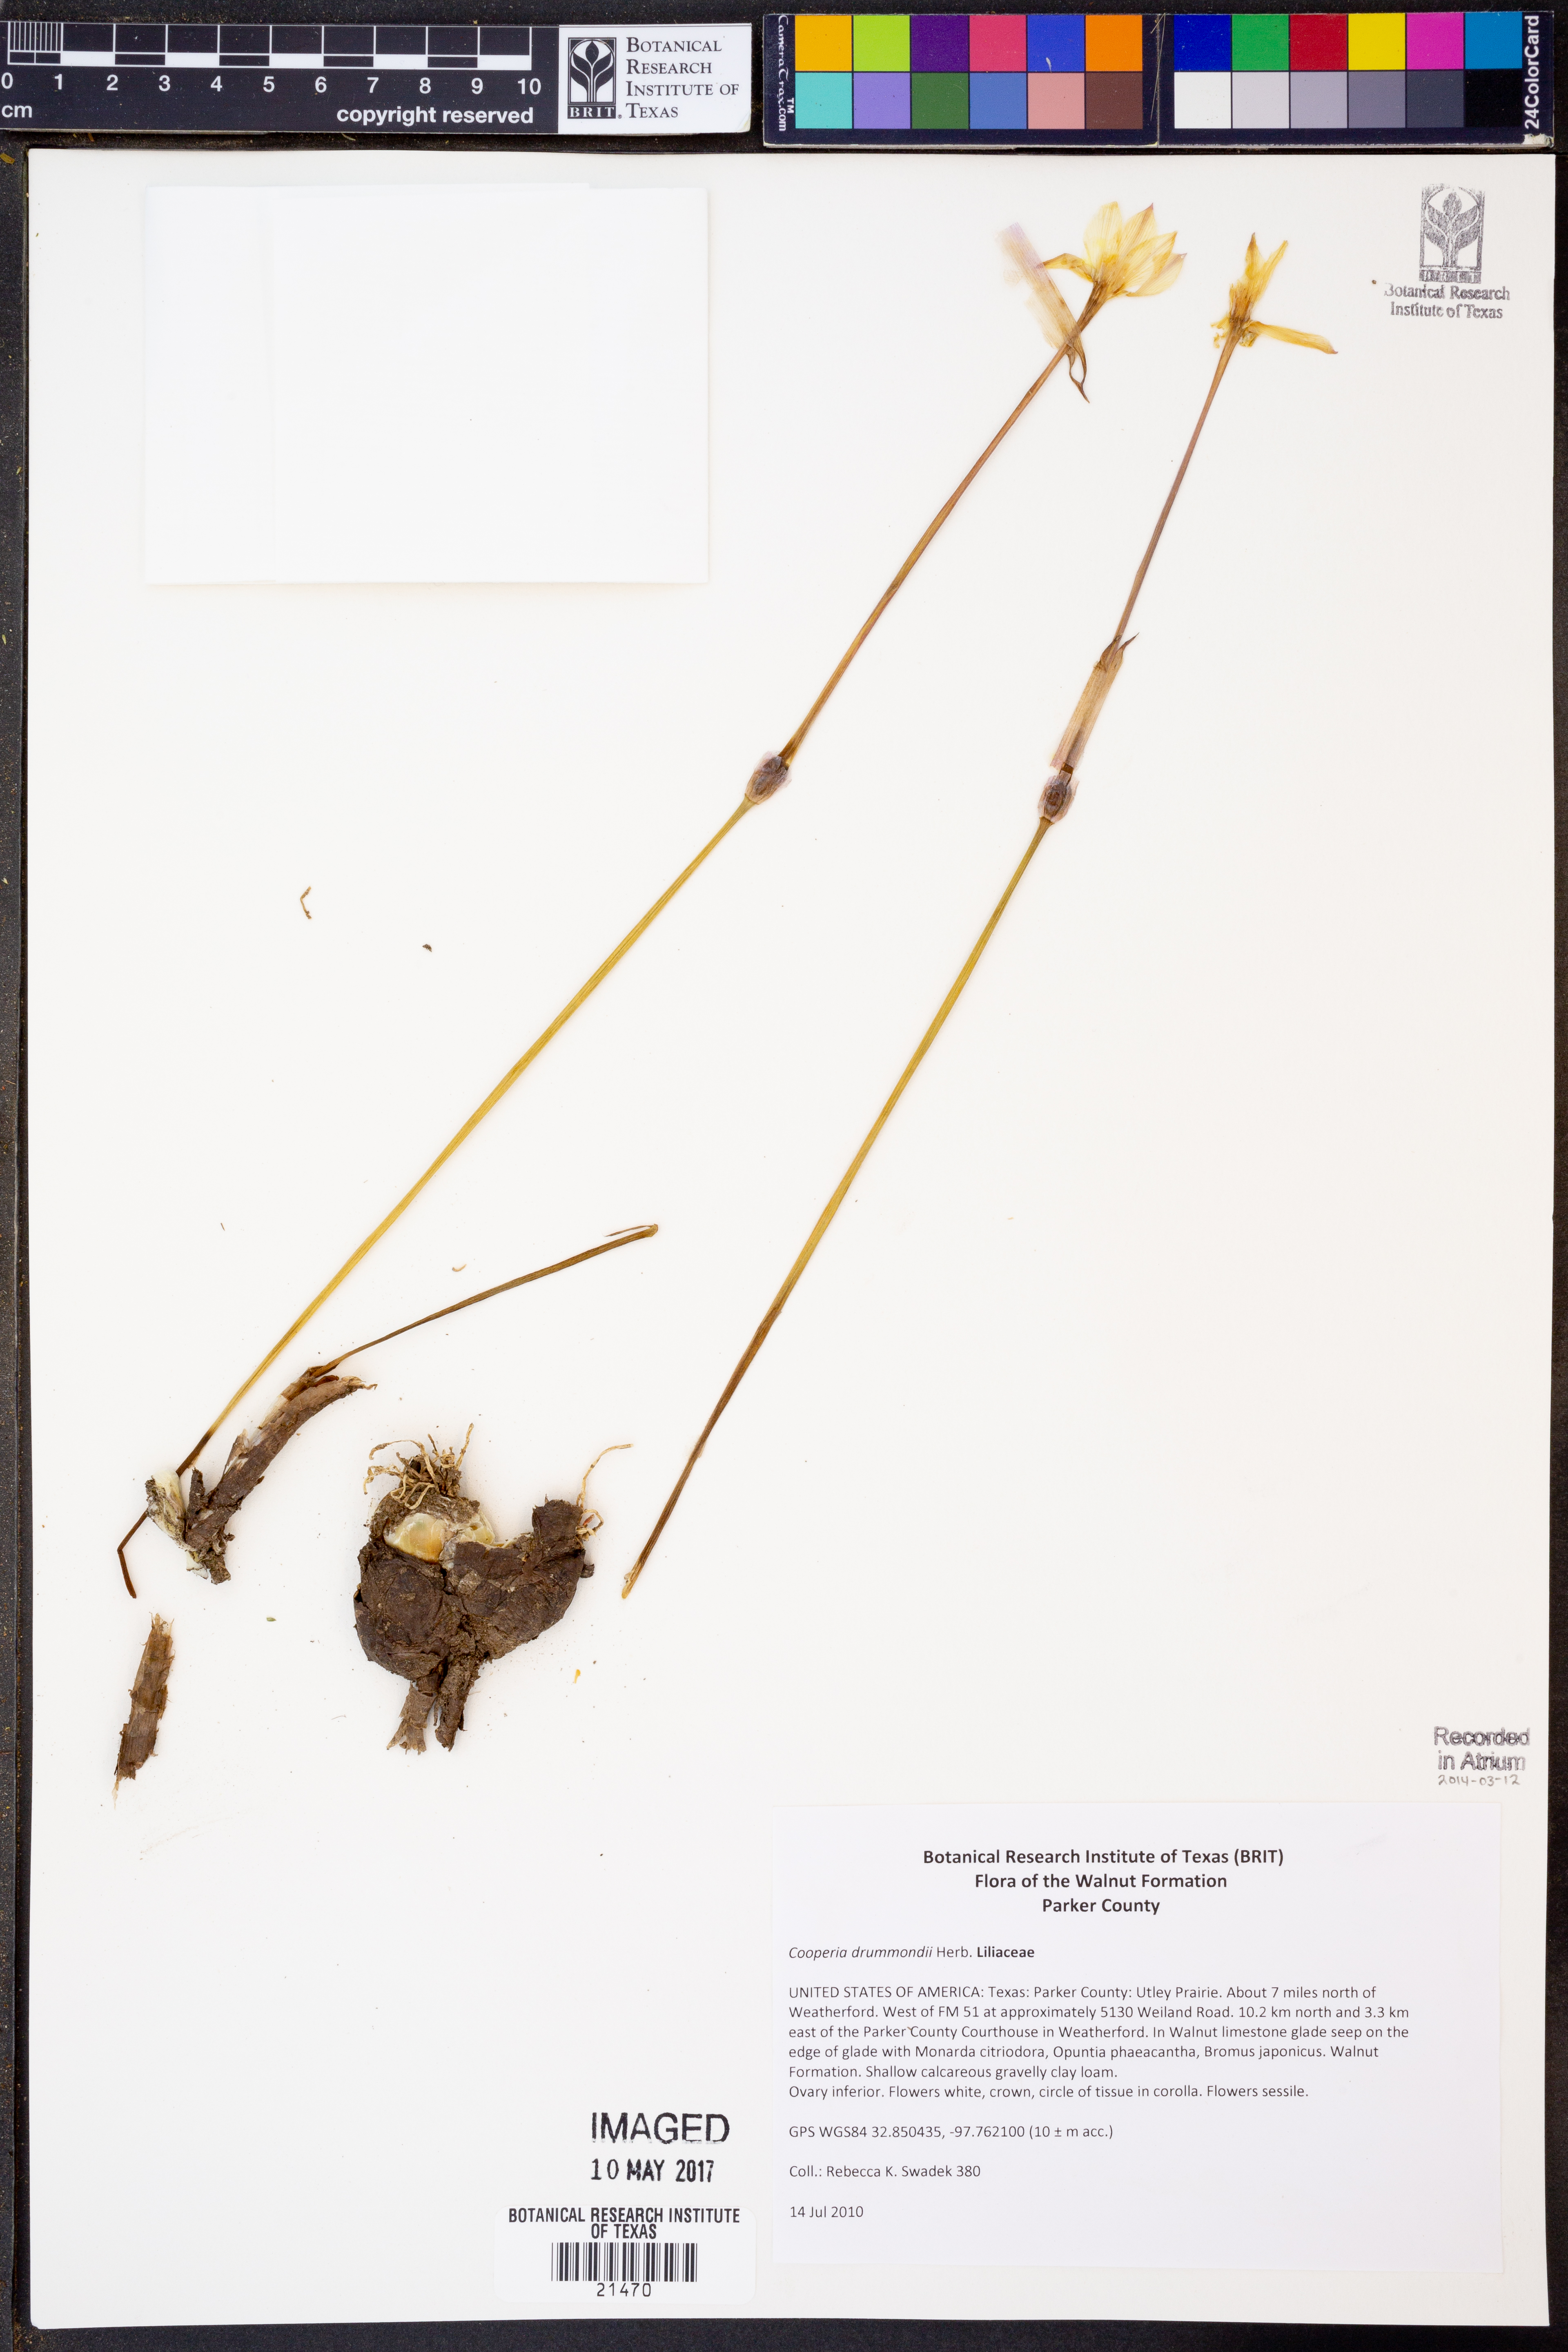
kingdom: Plantae
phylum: Tracheophyta
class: Liliopsida
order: Asparagales
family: Amaryllidaceae
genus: Zephyranthes
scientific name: Zephyranthes chlorosolen
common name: Evening rain-lily
